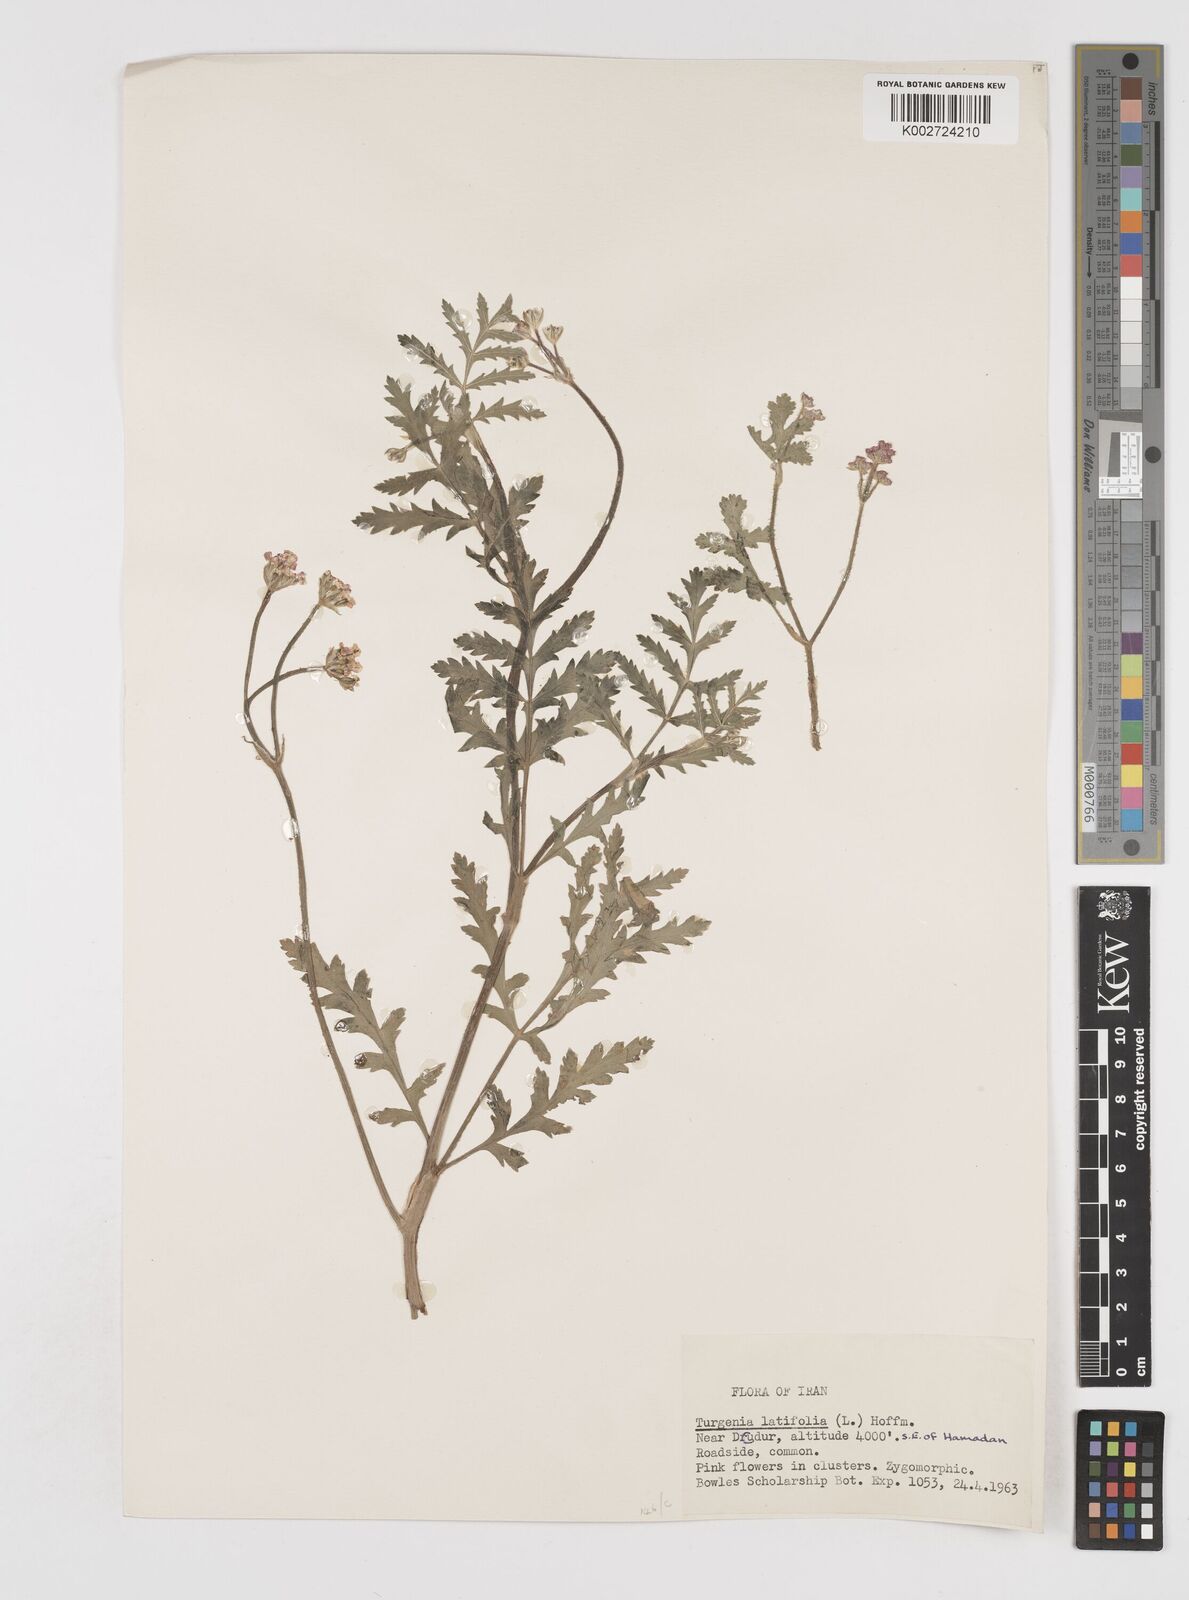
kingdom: Plantae
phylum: Tracheophyta
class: Magnoliopsida
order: Apiales
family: Apiaceae
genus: Turgenia
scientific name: Turgenia latifolia
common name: Greater bur-parsley
